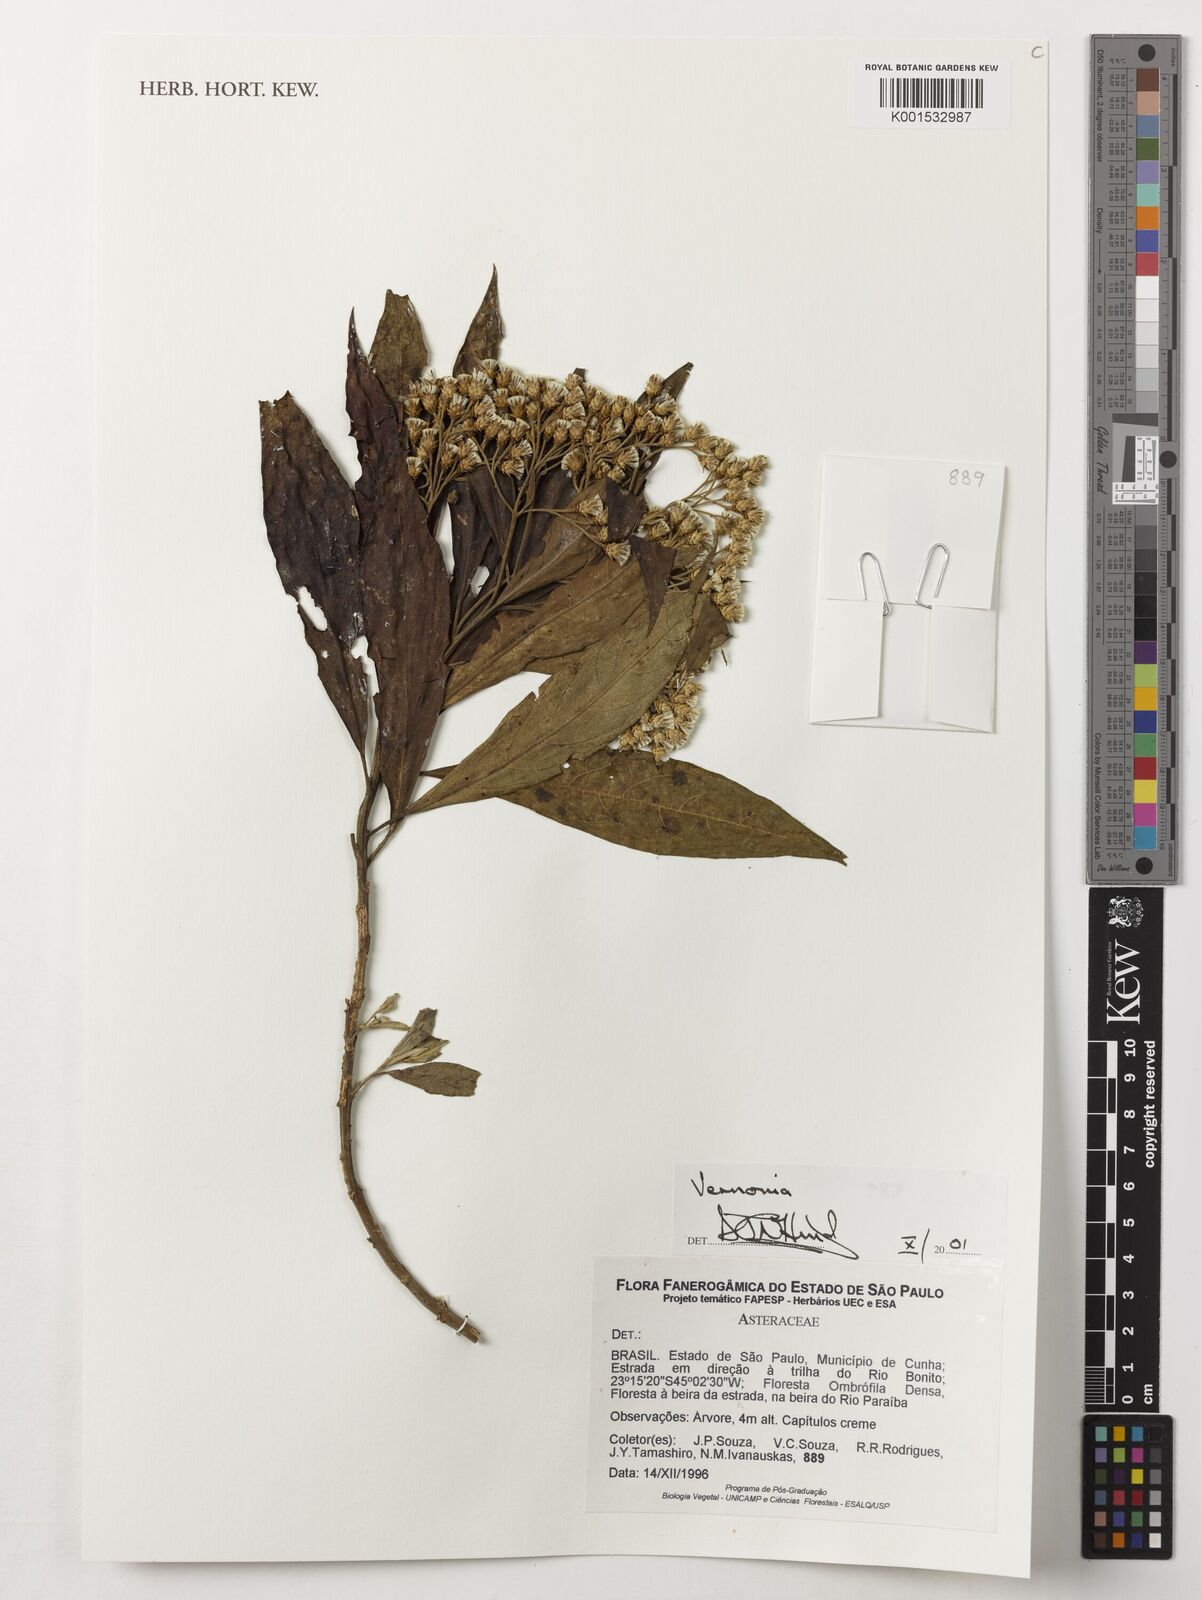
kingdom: Plantae
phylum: Tracheophyta
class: Magnoliopsida
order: Asterales
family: Asteraceae
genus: Vernonia
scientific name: Vernonia
